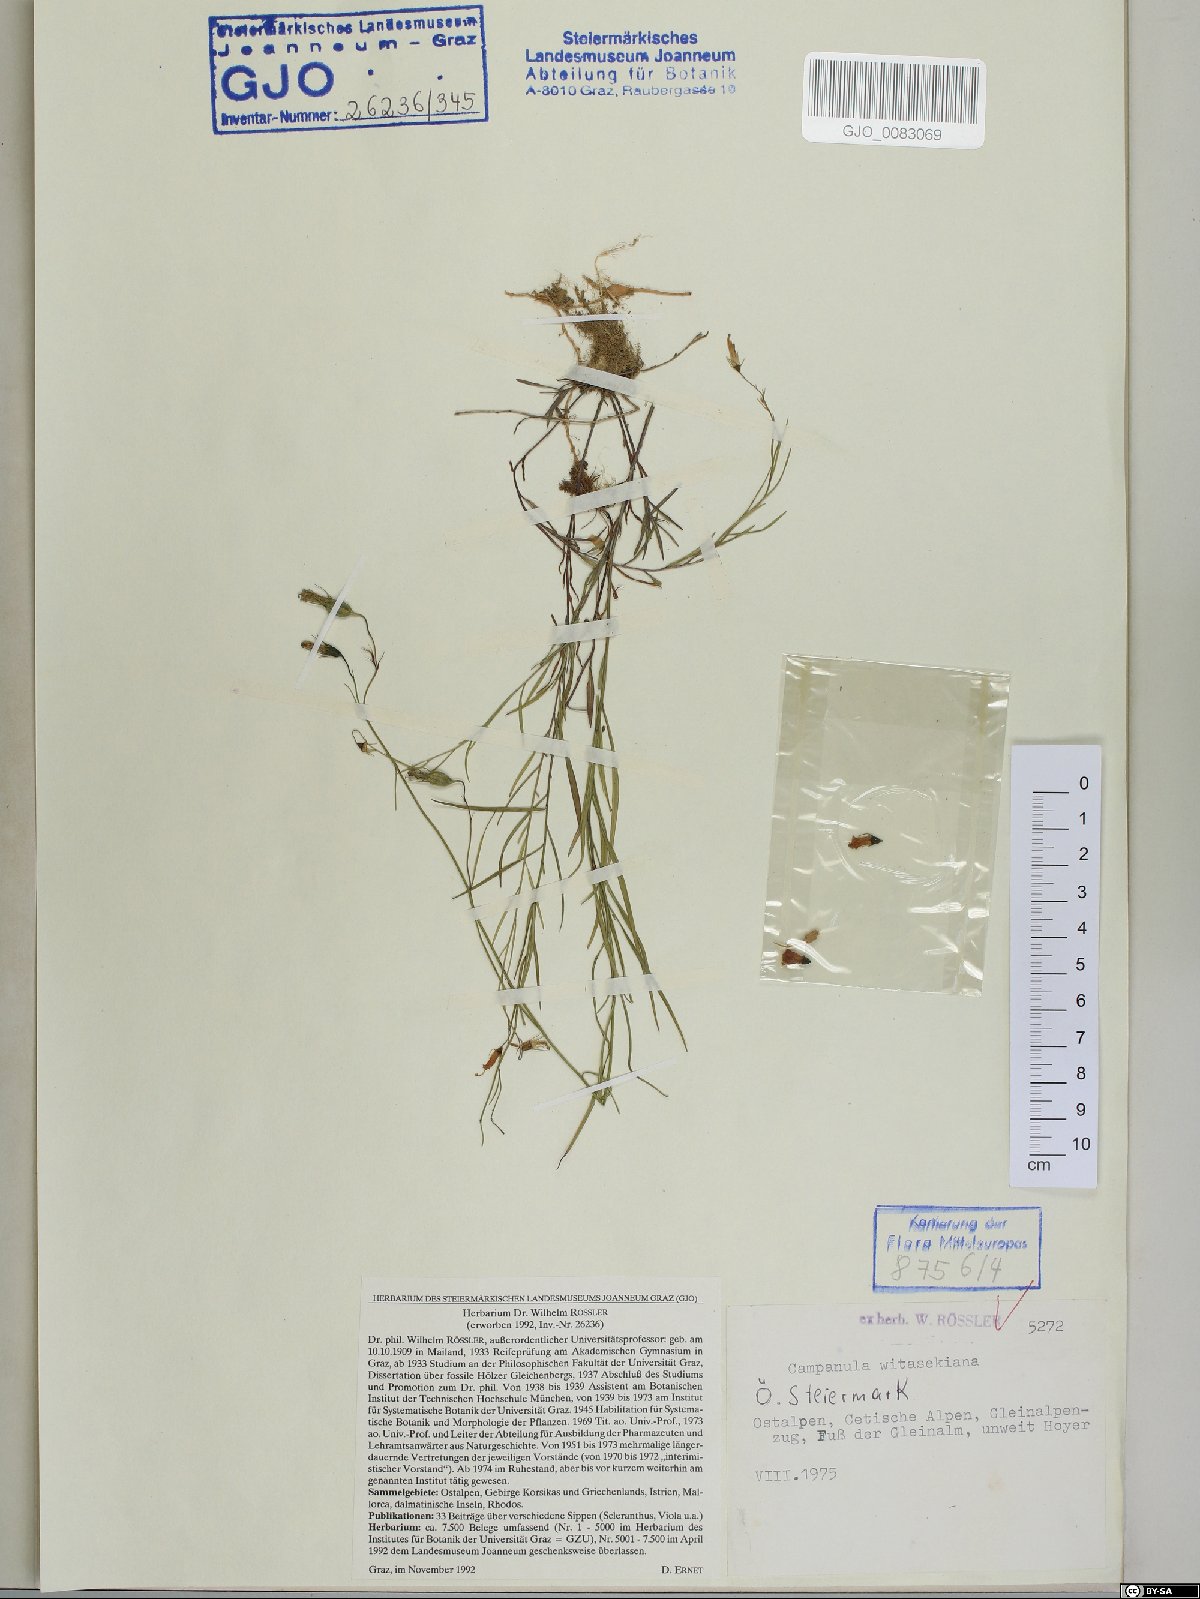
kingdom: Plantae
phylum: Tracheophyta
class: Magnoliopsida
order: Asterales
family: Campanulaceae
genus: Campanula
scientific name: Campanula witasekiana
